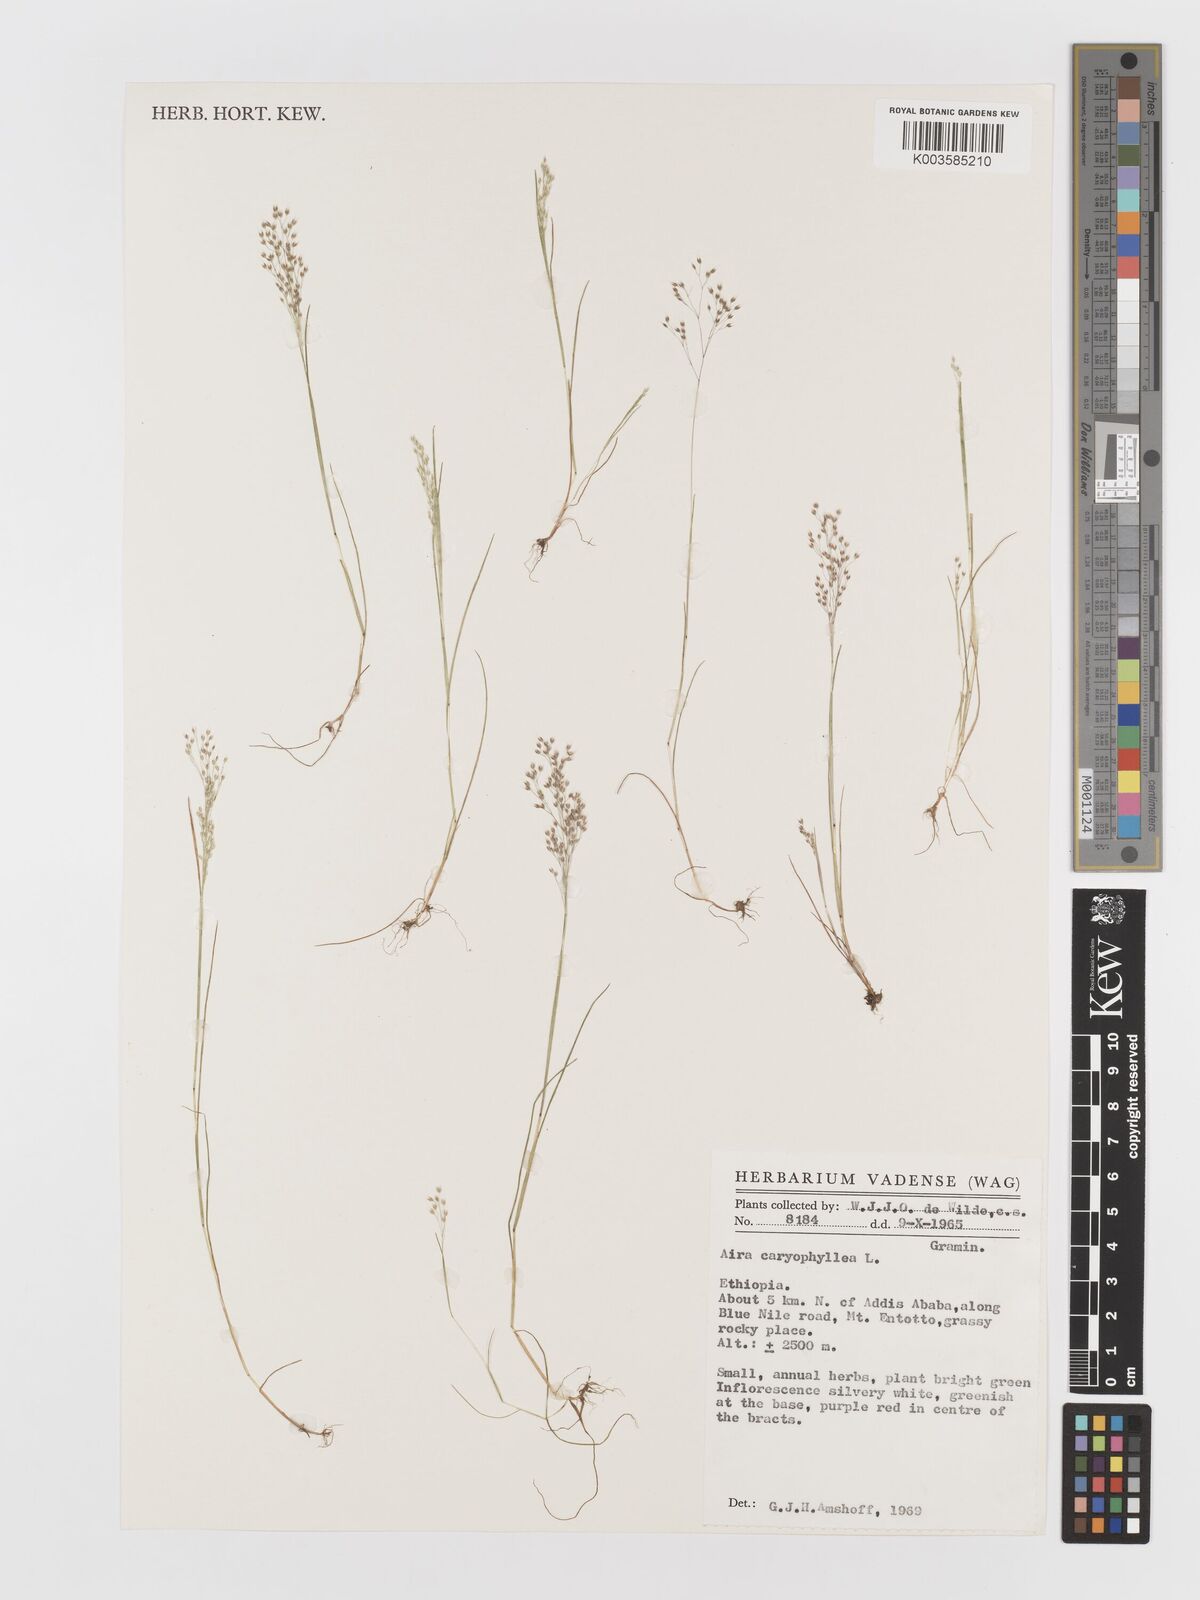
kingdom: Plantae
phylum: Tracheophyta
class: Liliopsida
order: Poales
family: Poaceae
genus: Aira
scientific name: Aira caryophyllea
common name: Silver hairgrass
